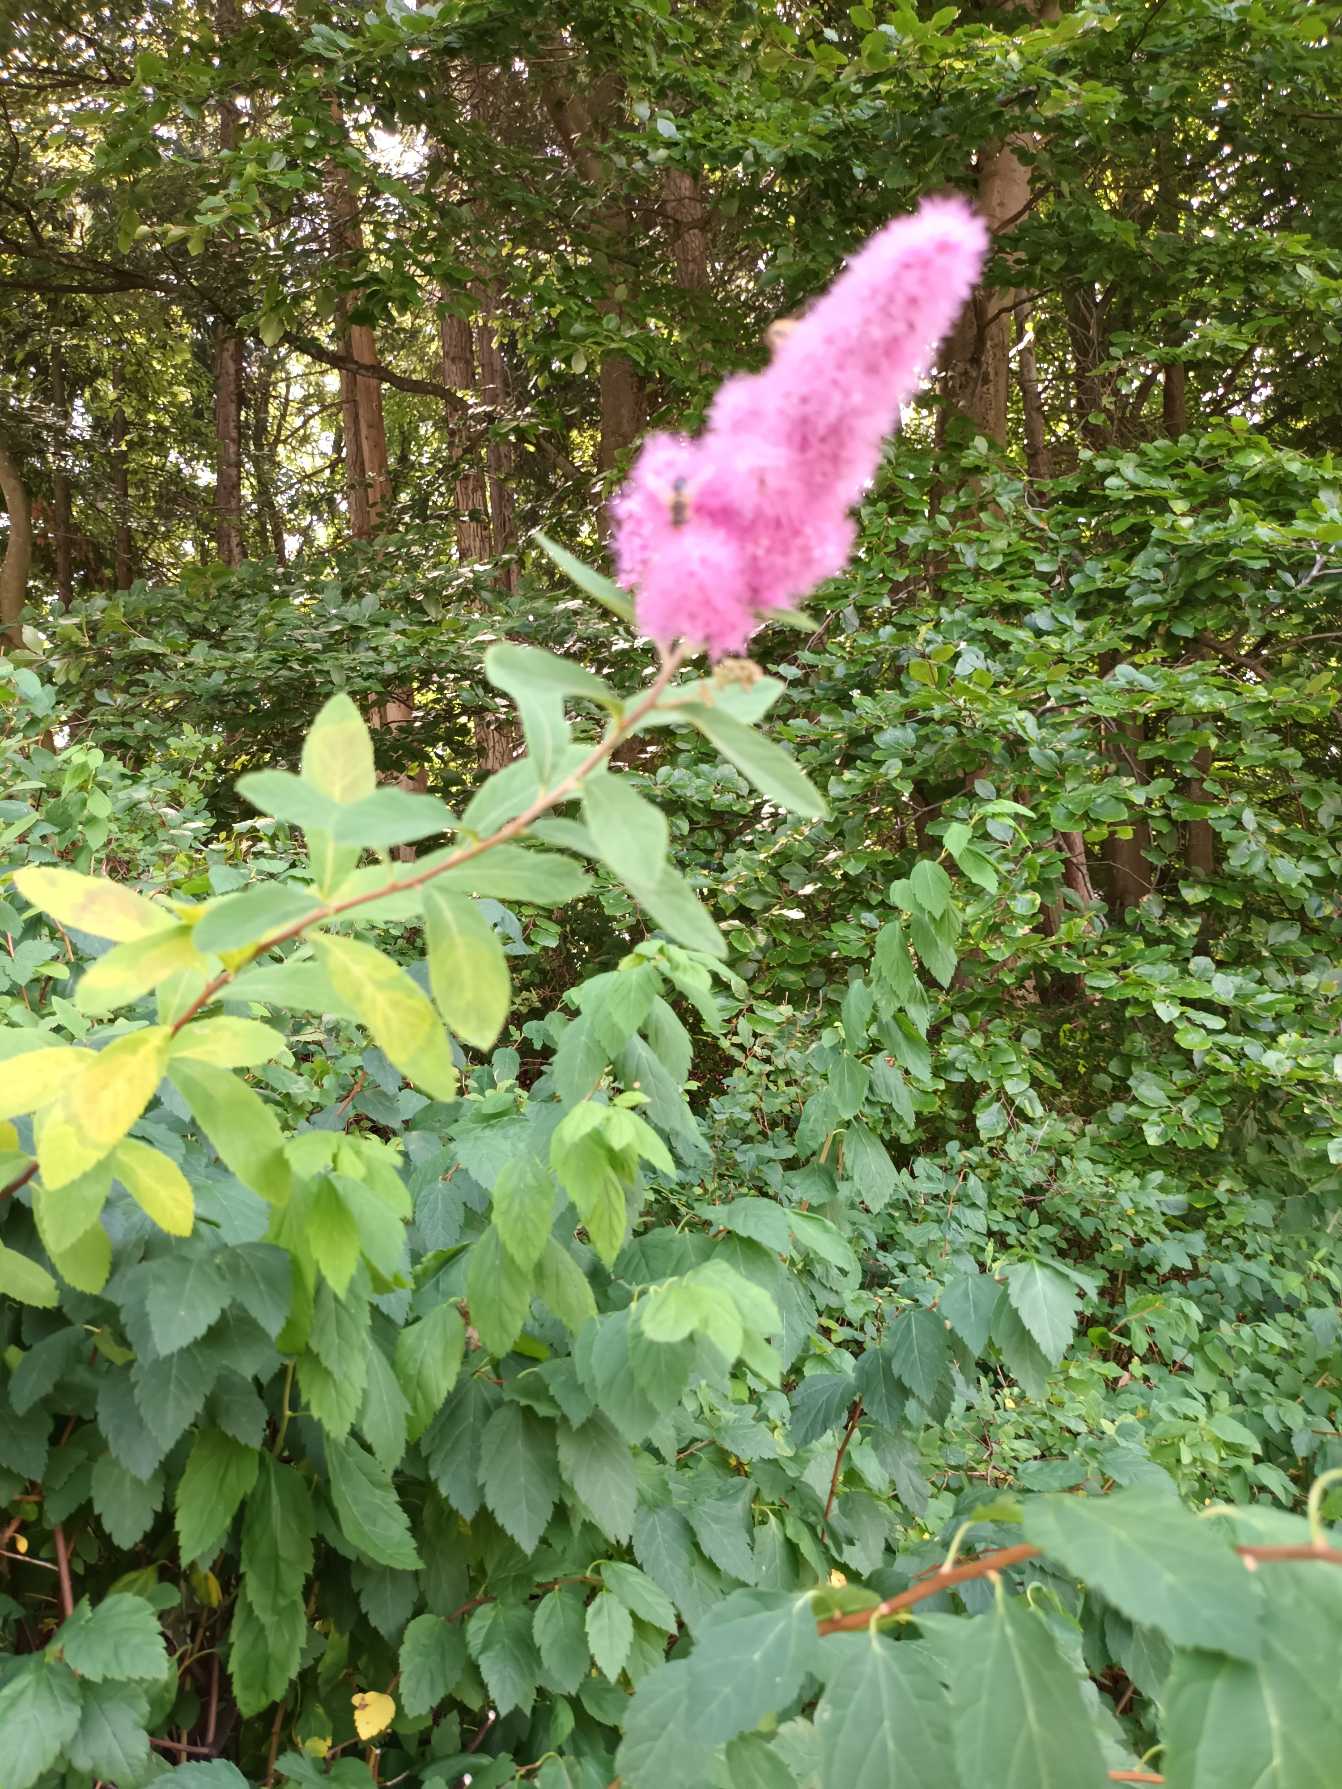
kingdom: Plantae
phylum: Tracheophyta
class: Magnoliopsida
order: Rosales
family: Rosaceae
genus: Spiraea
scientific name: Spiraea billardii
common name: Klase-spiræa
